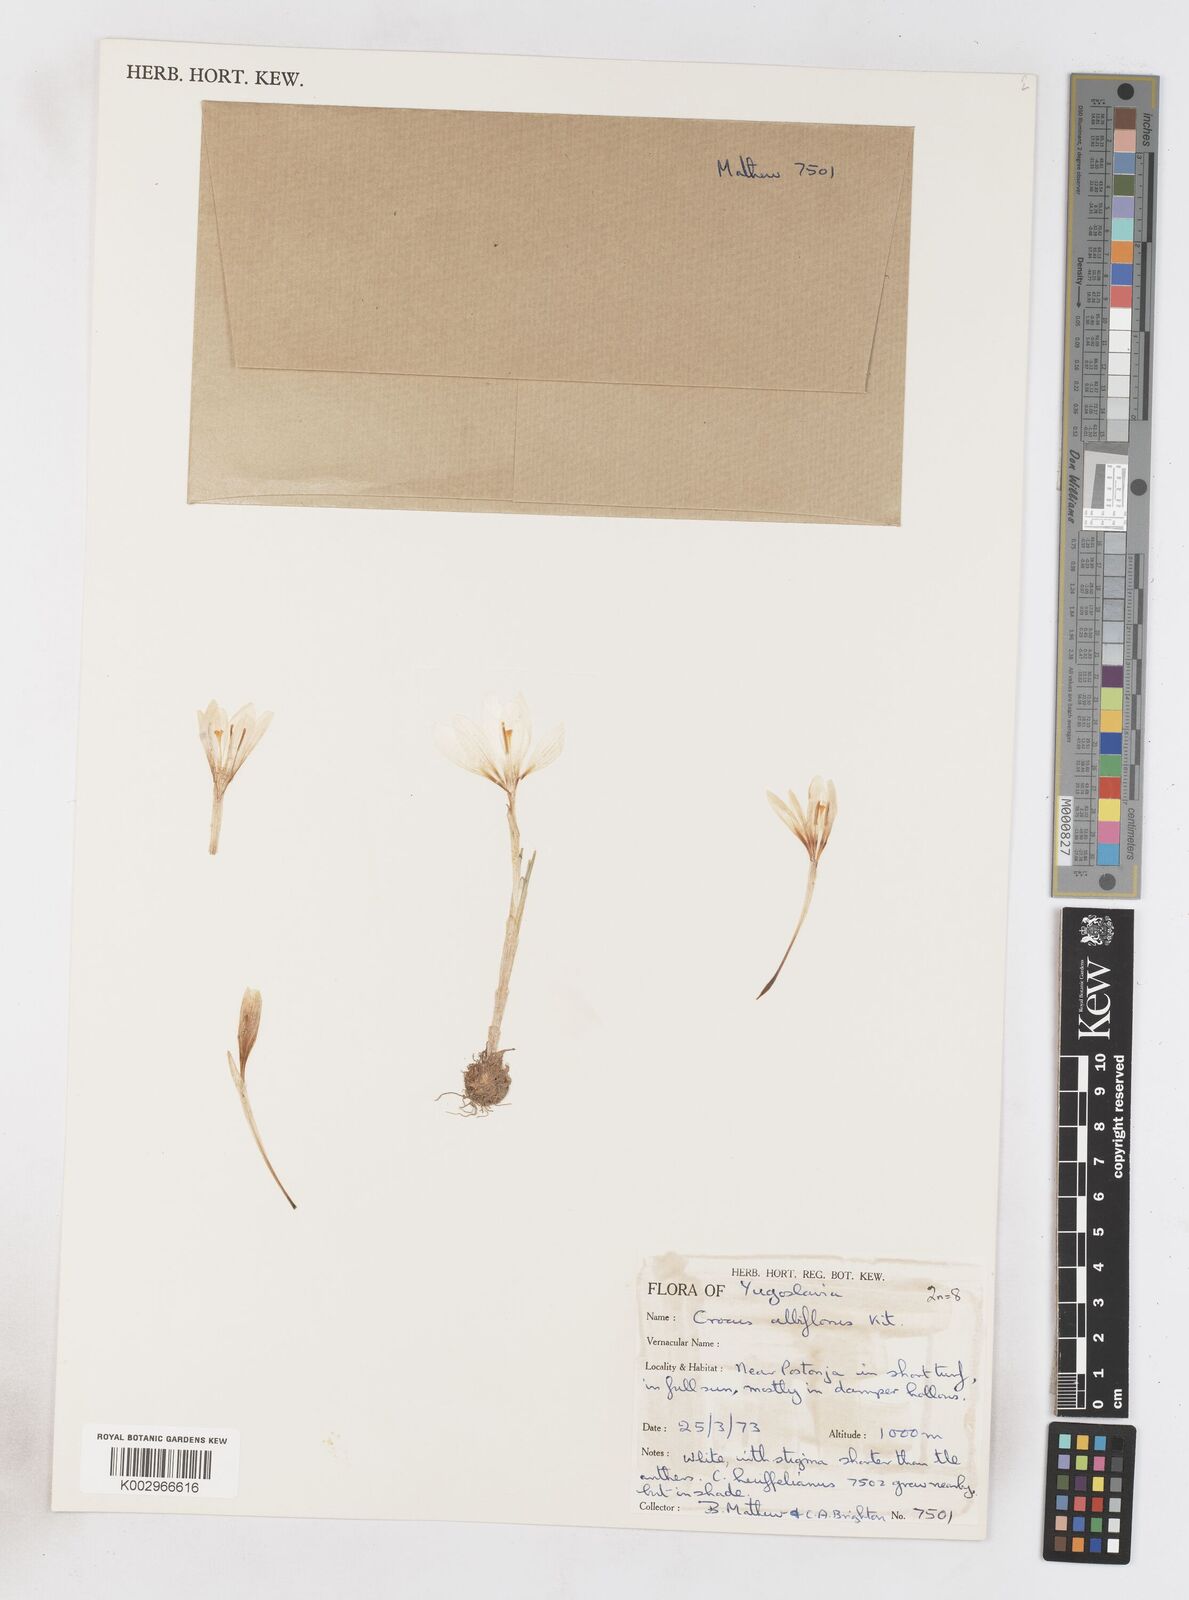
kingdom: Plantae
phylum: Tracheophyta
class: Liliopsida
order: Asparagales
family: Iridaceae
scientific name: Iridaceae
